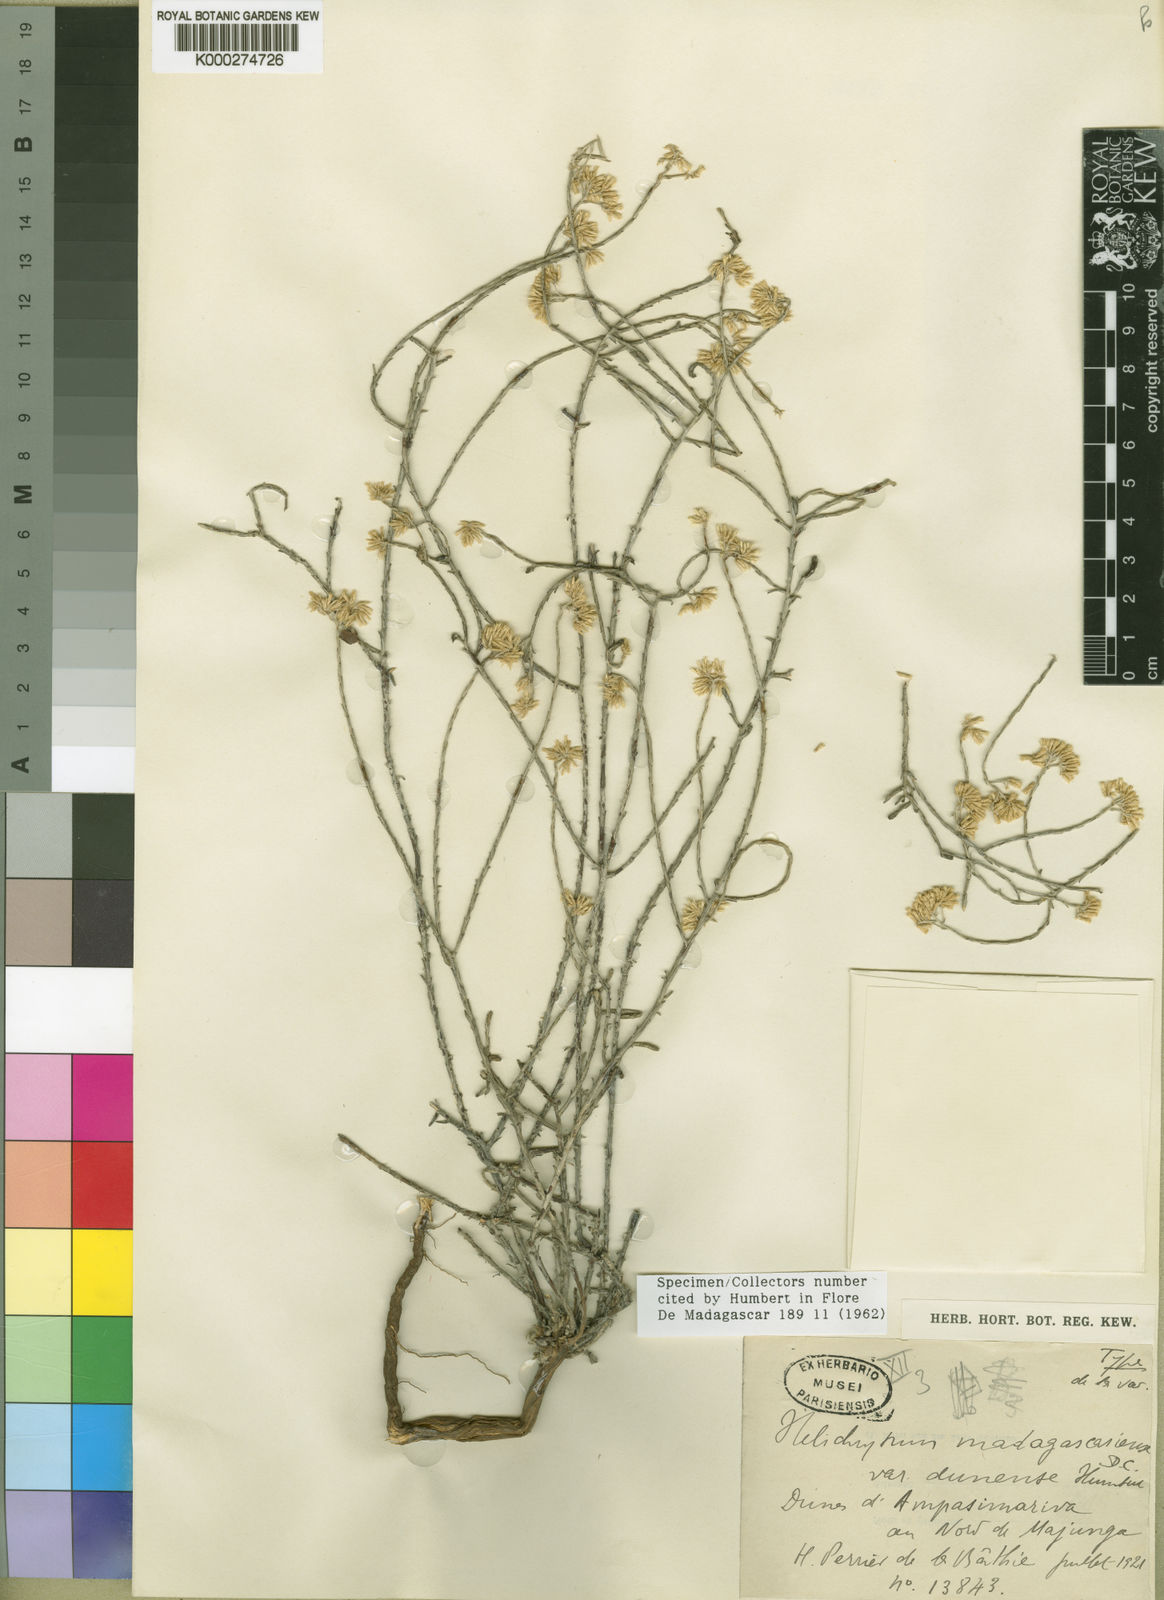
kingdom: Plantae
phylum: Tracheophyta
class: Magnoliopsida
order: Asterales
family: Asteraceae
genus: Helichrysum
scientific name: Helichrysum madagascariense
